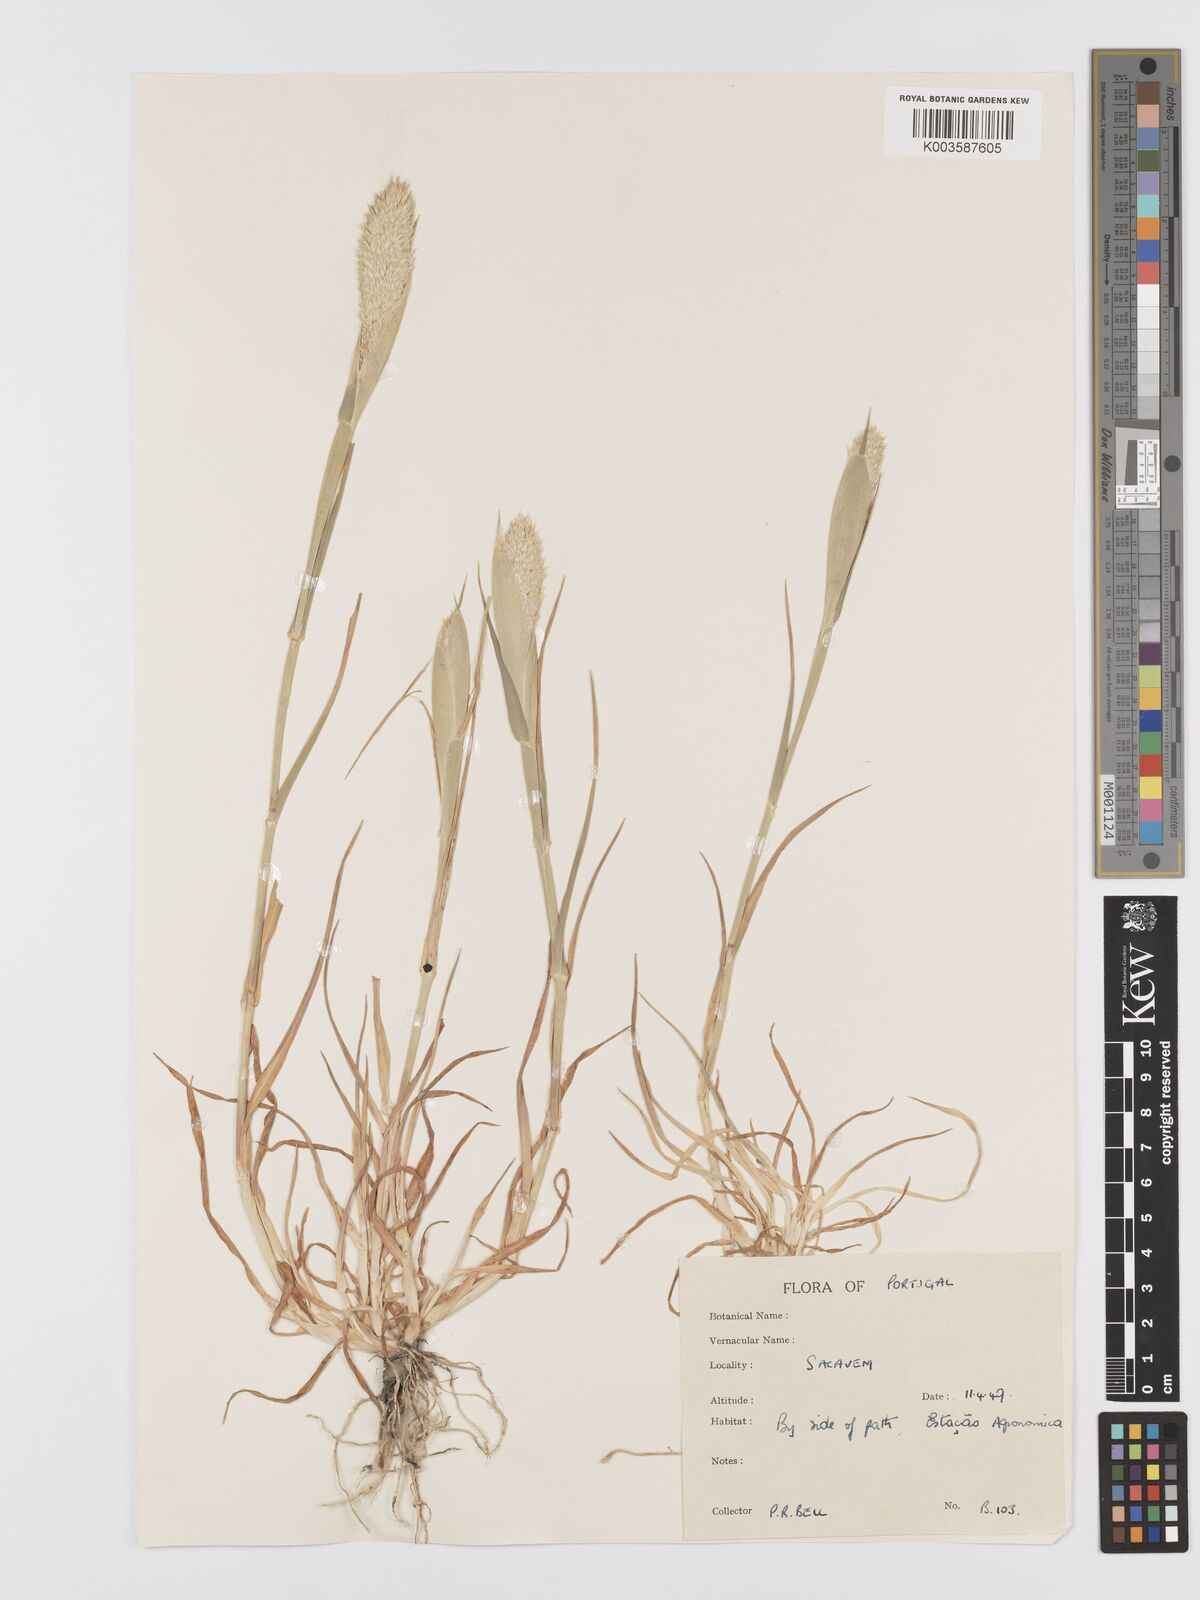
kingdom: Plantae
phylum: Tracheophyta
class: Liliopsida
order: Poales
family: Poaceae
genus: Phalaris
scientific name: Phalaris paradoxa
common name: Awned canary-grass
